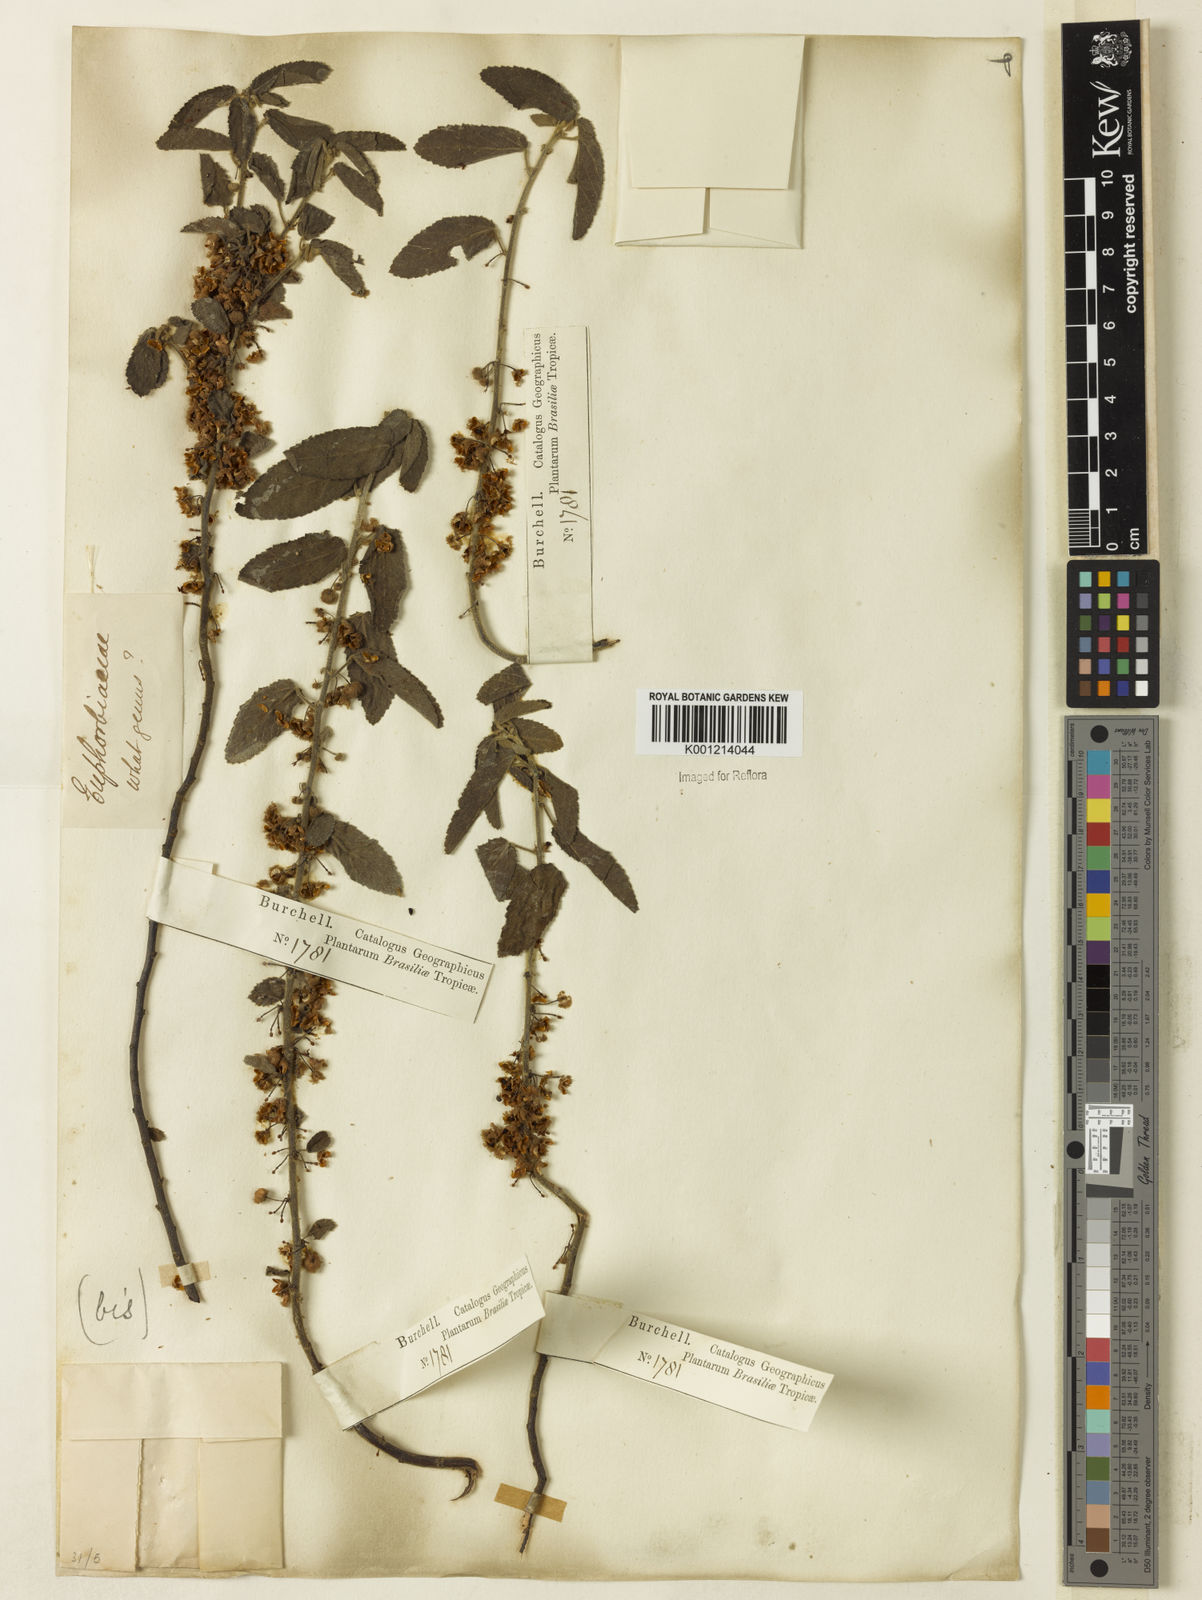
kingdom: Plantae
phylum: Tracheophyta
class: Magnoliopsida
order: Malvales
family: Malvaceae
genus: Ayenia
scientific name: Ayenia tomentosa
